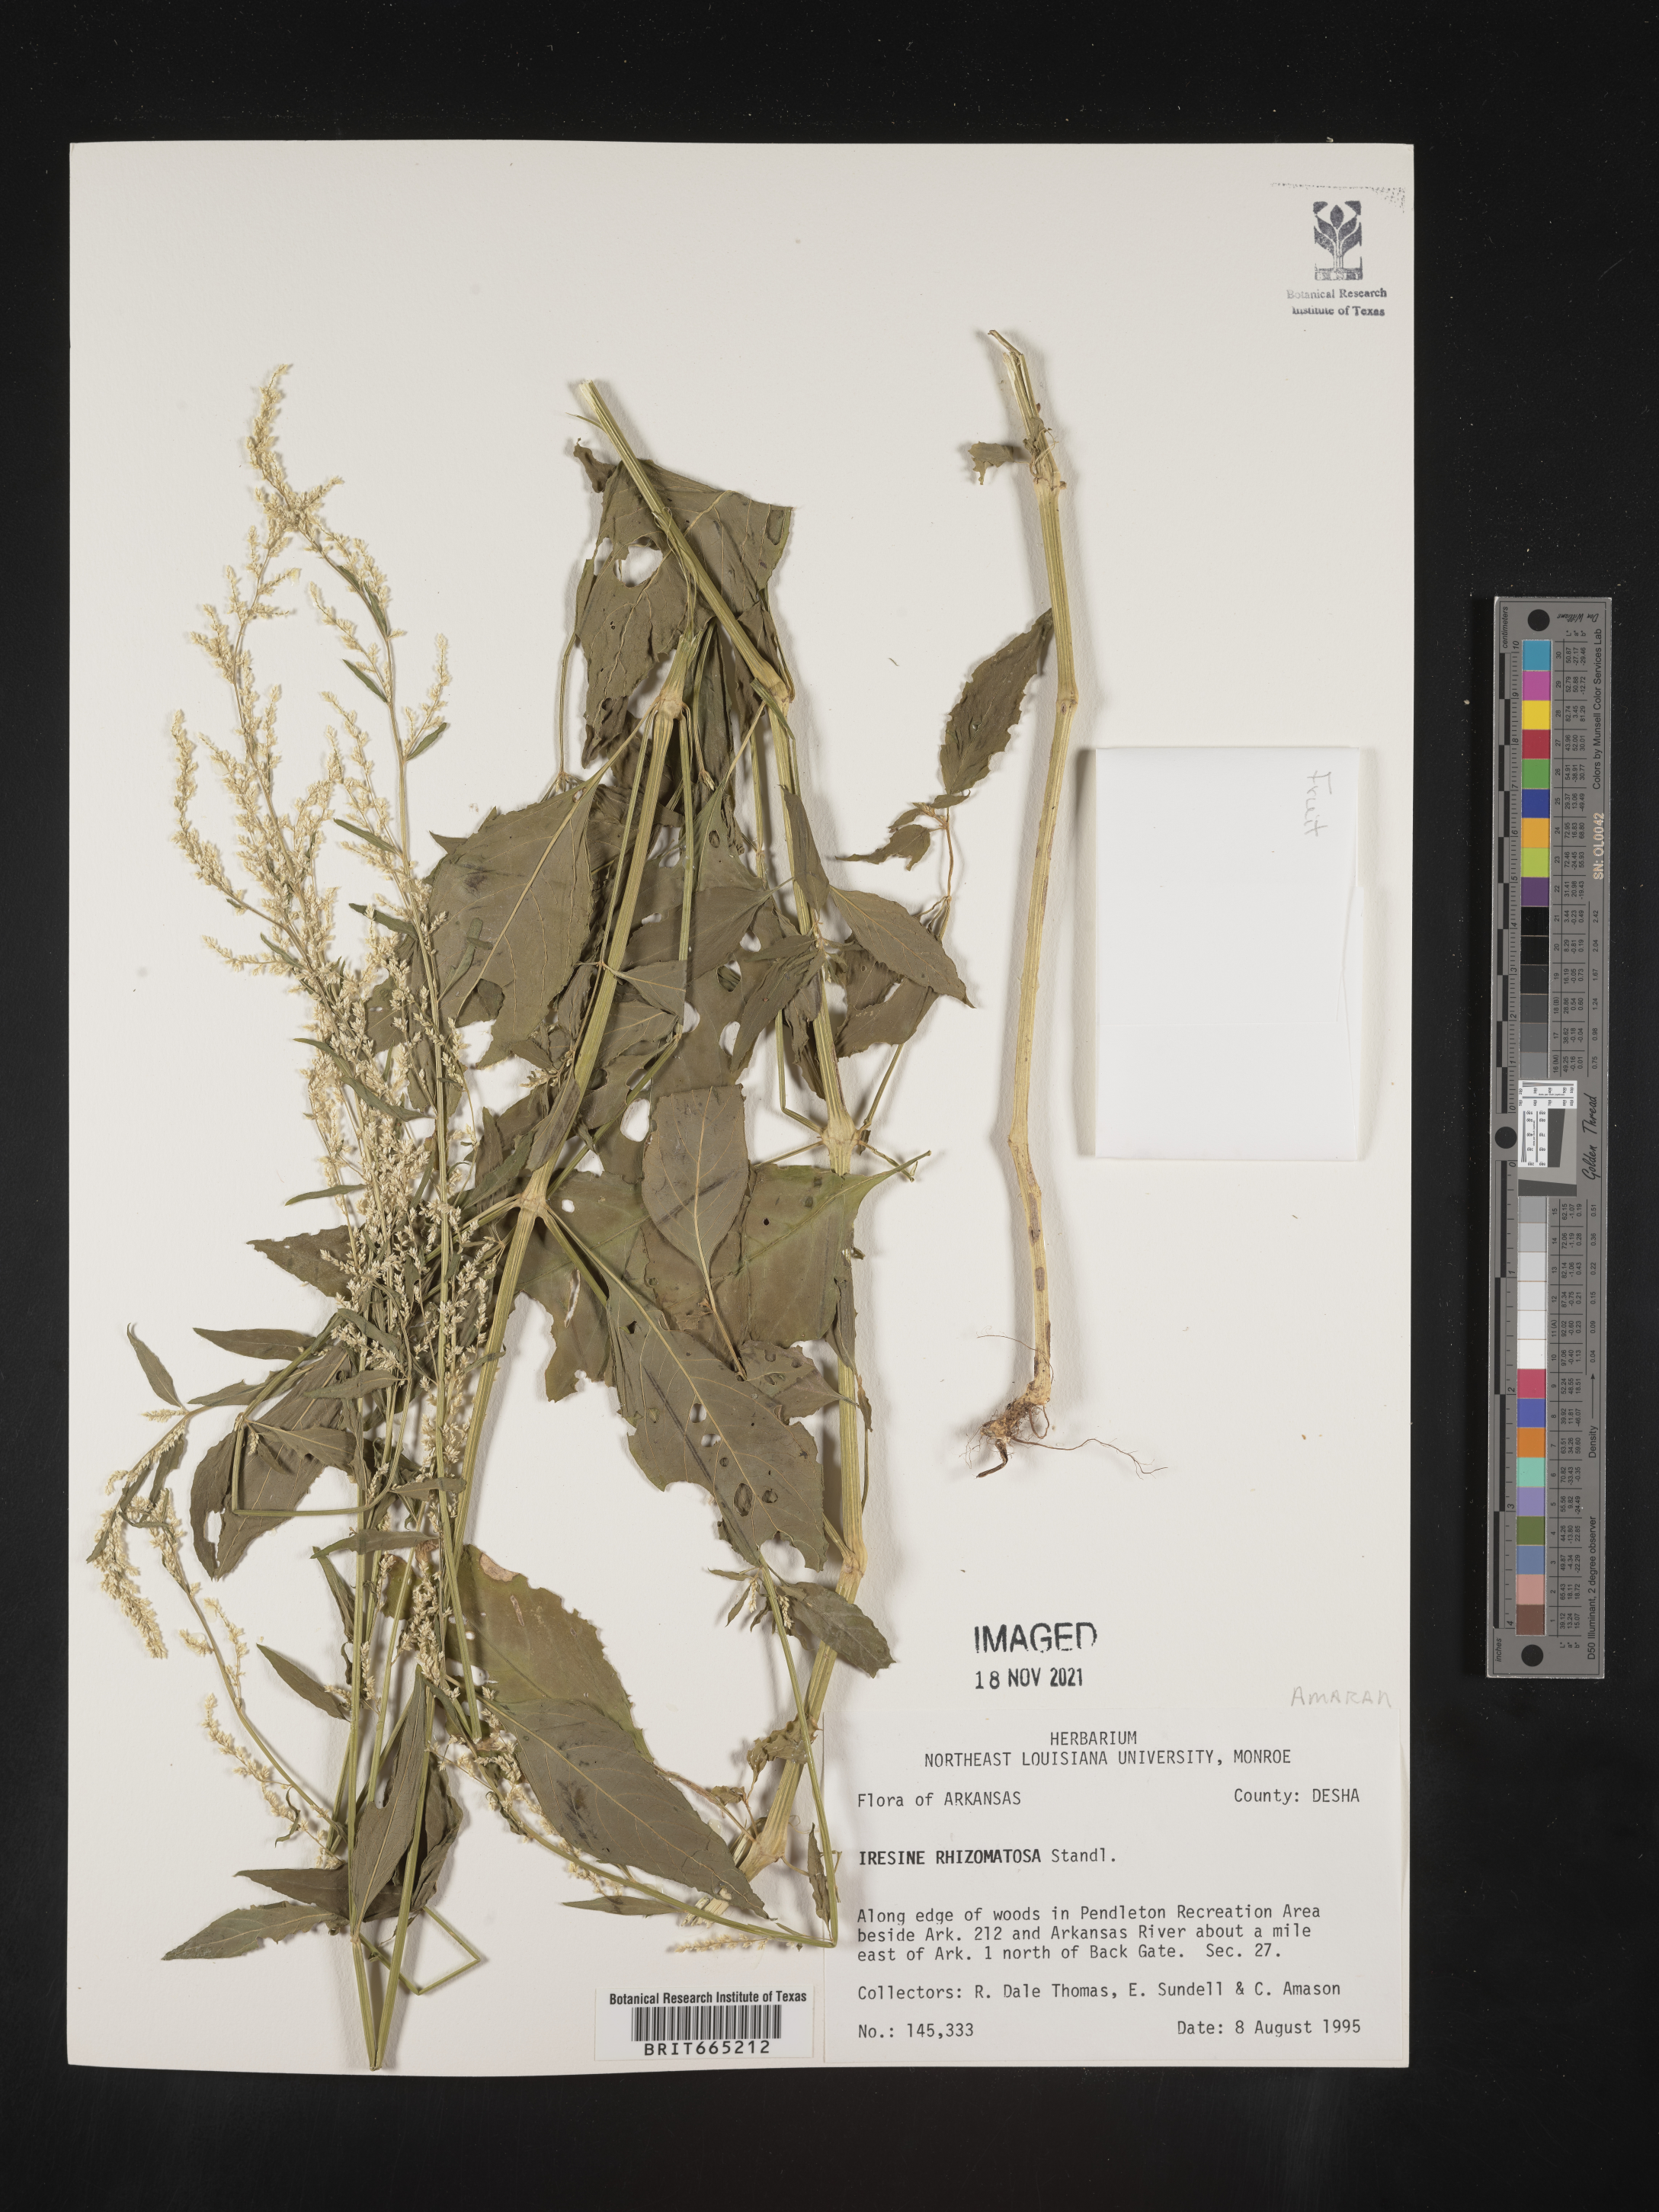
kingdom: Plantae
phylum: Tracheophyta
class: Magnoliopsida
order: Caryophyllales
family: Amaranthaceae
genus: Iresine
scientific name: Iresine rhizomatosa
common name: Juda's-bush
